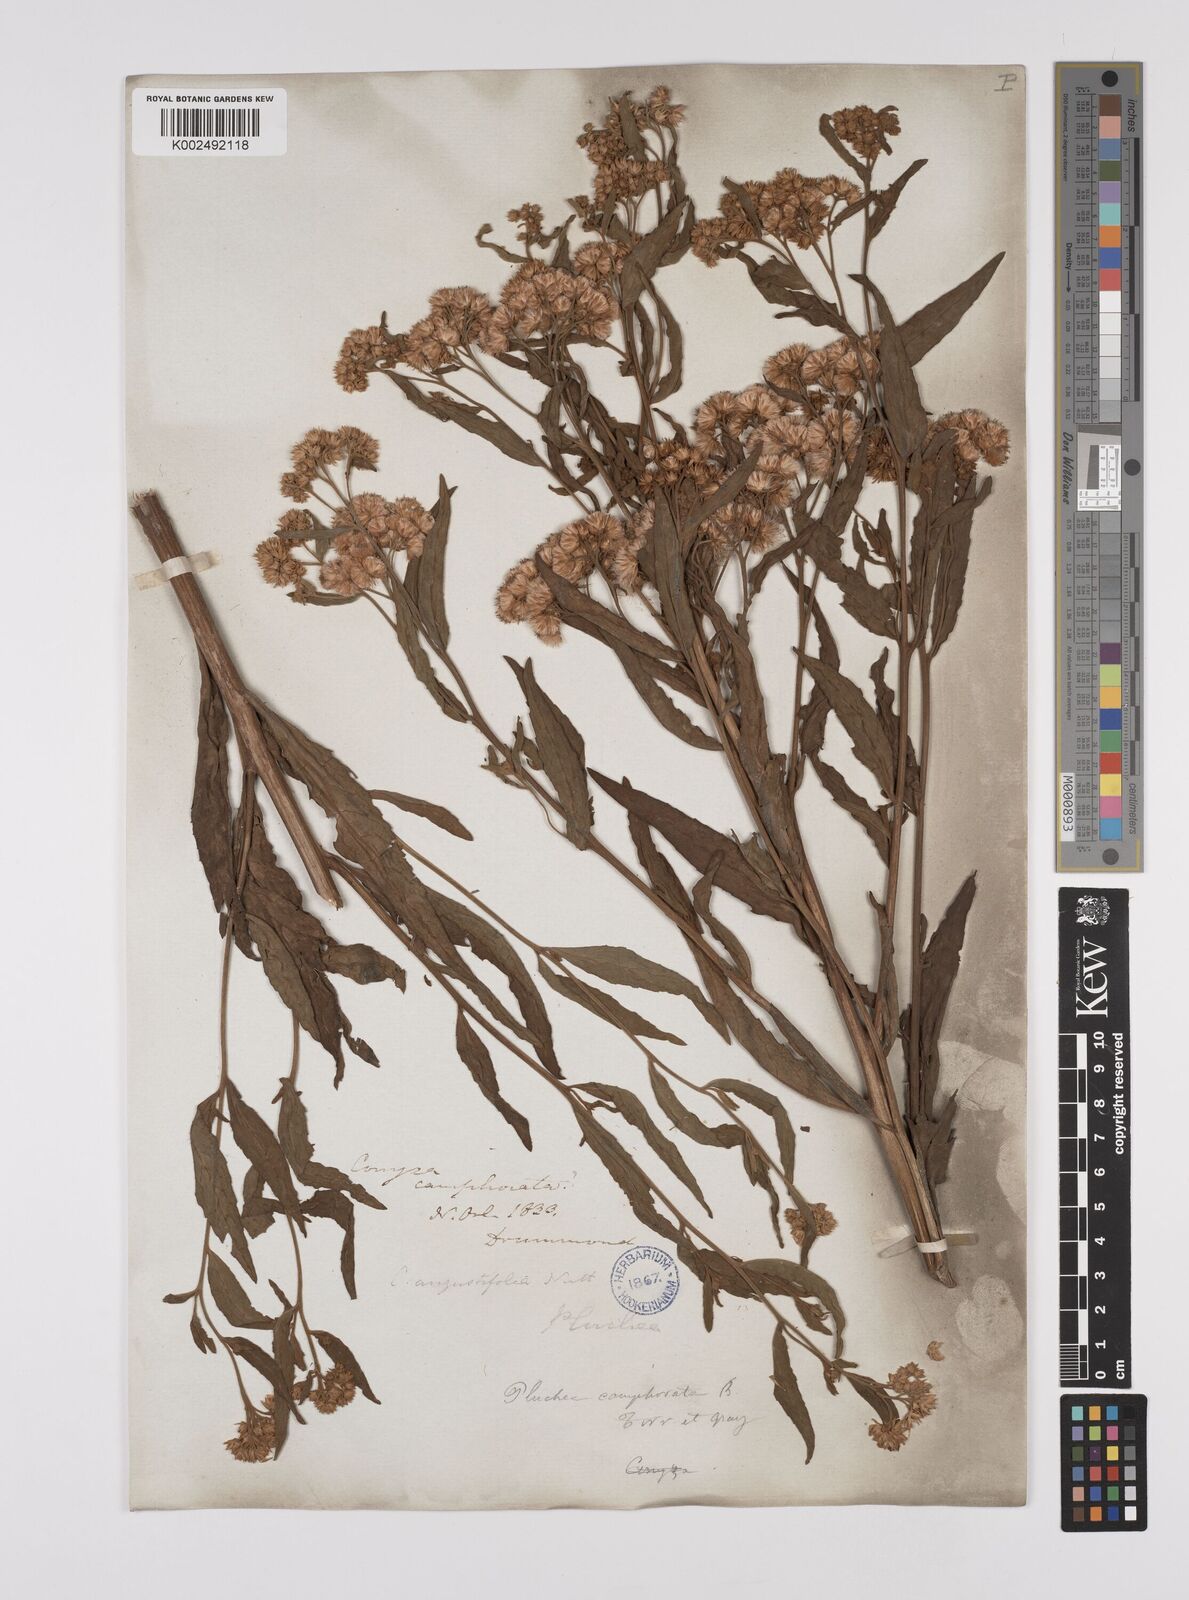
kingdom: Plantae
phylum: Tracheophyta
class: Magnoliopsida
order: Asterales
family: Asteraceae
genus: Pluchea
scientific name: Pluchea camphorata
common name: Camphor pluchea
